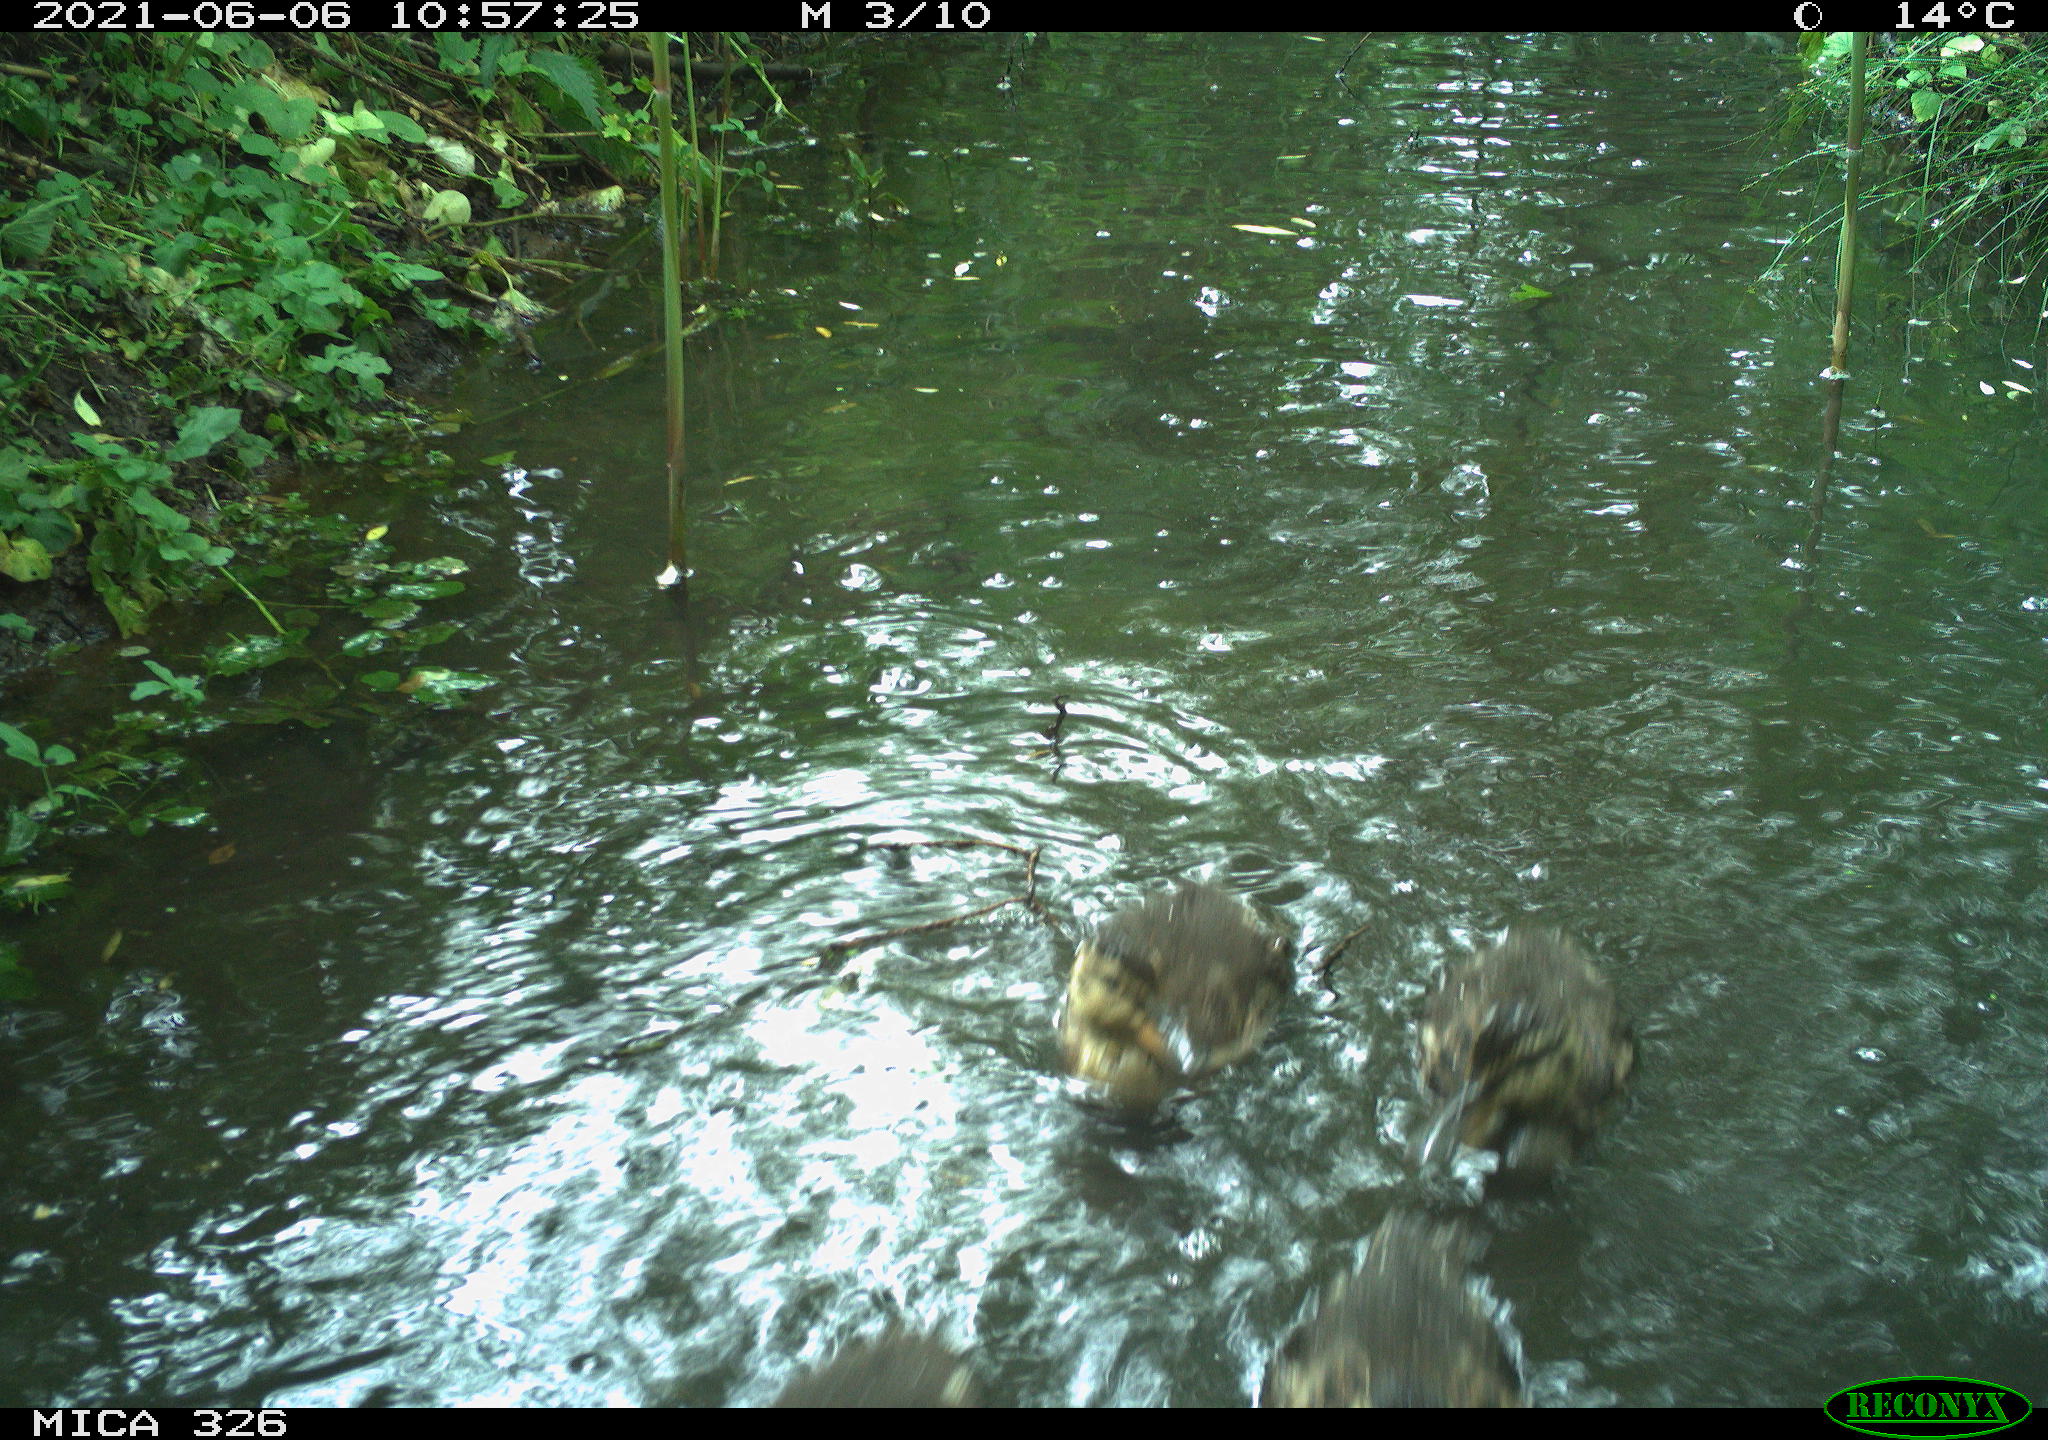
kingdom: Animalia
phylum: Chordata
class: Aves
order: Anseriformes
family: Anatidae
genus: Anas
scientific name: Anas platyrhynchos
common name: Mallard
